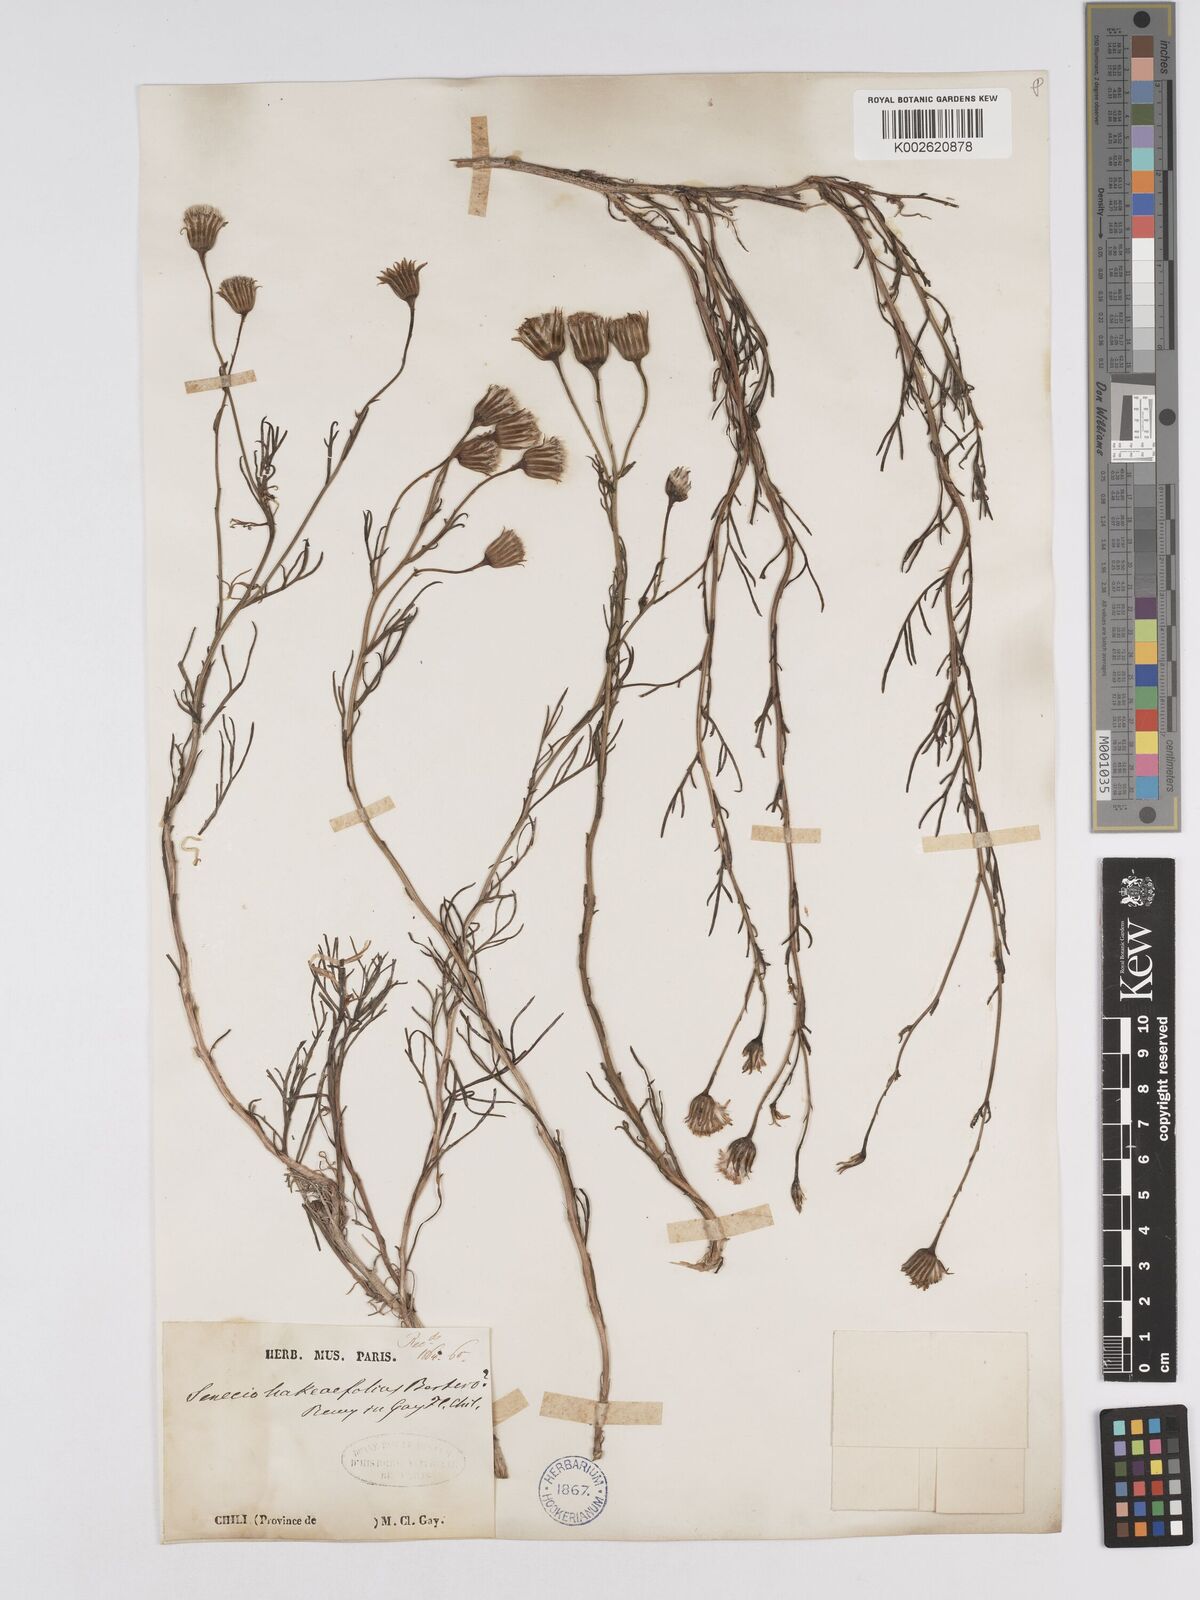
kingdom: Plantae
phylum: Tracheophyta
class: Magnoliopsida
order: Asterales
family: Asteraceae
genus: Senecio
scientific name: Senecio hakeifolius
